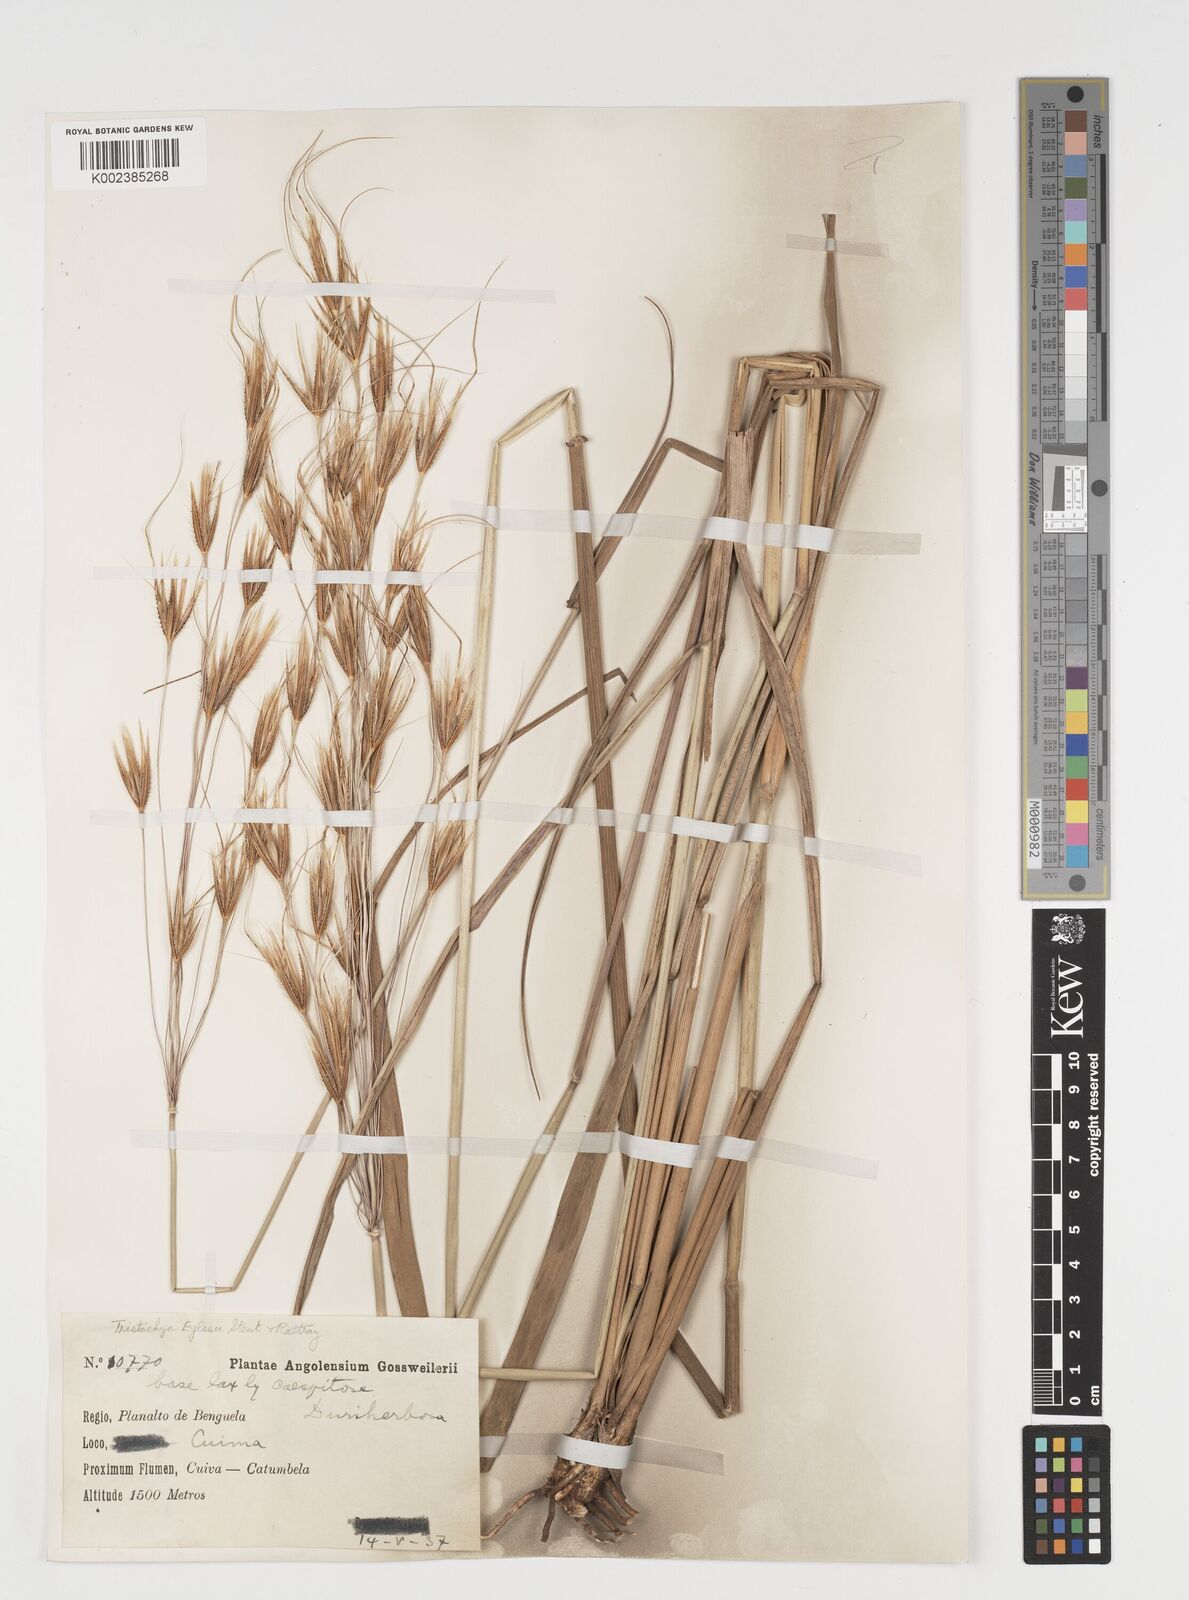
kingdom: Plantae
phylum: Tracheophyta
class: Liliopsida
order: Poales
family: Poaceae
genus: Tristachya
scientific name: Tristachya nodiglumis
